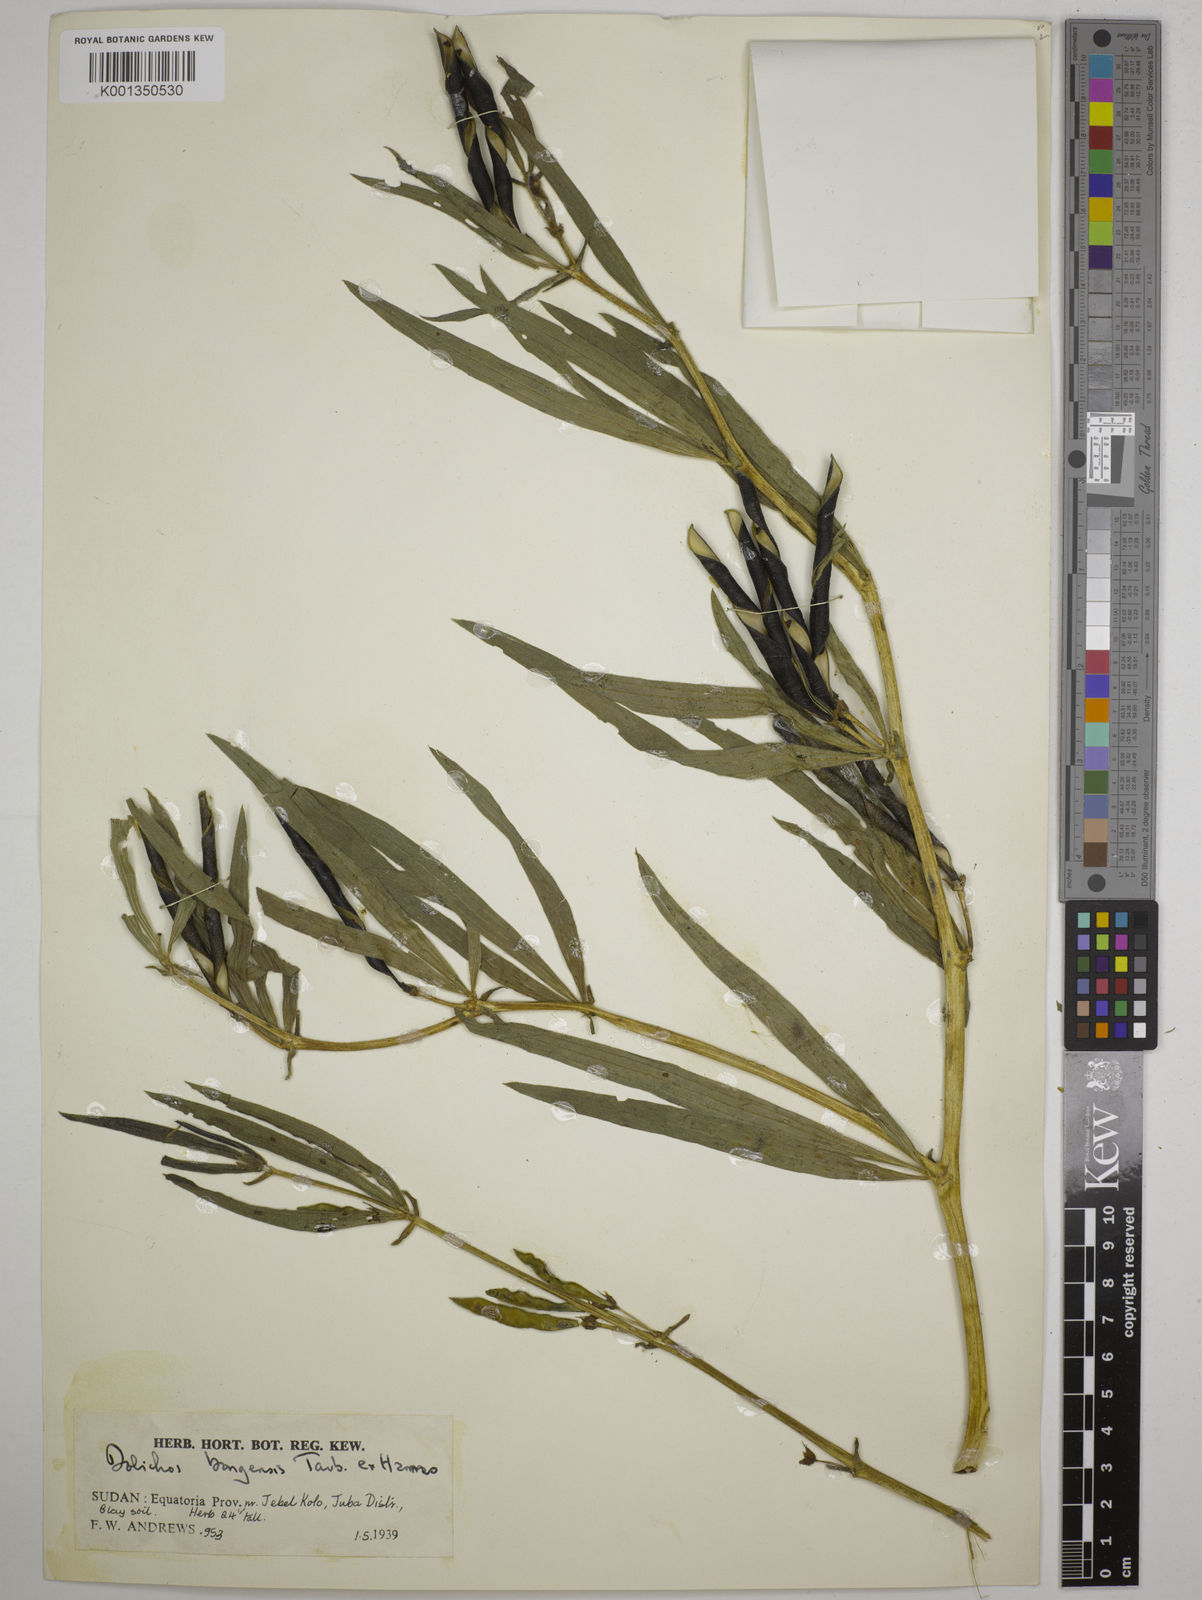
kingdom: Plantae
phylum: Tracheophyta
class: Magnoliopsida
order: Fabales
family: Fabaceae
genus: Dolichos
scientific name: Dolichos schweinfurthii
